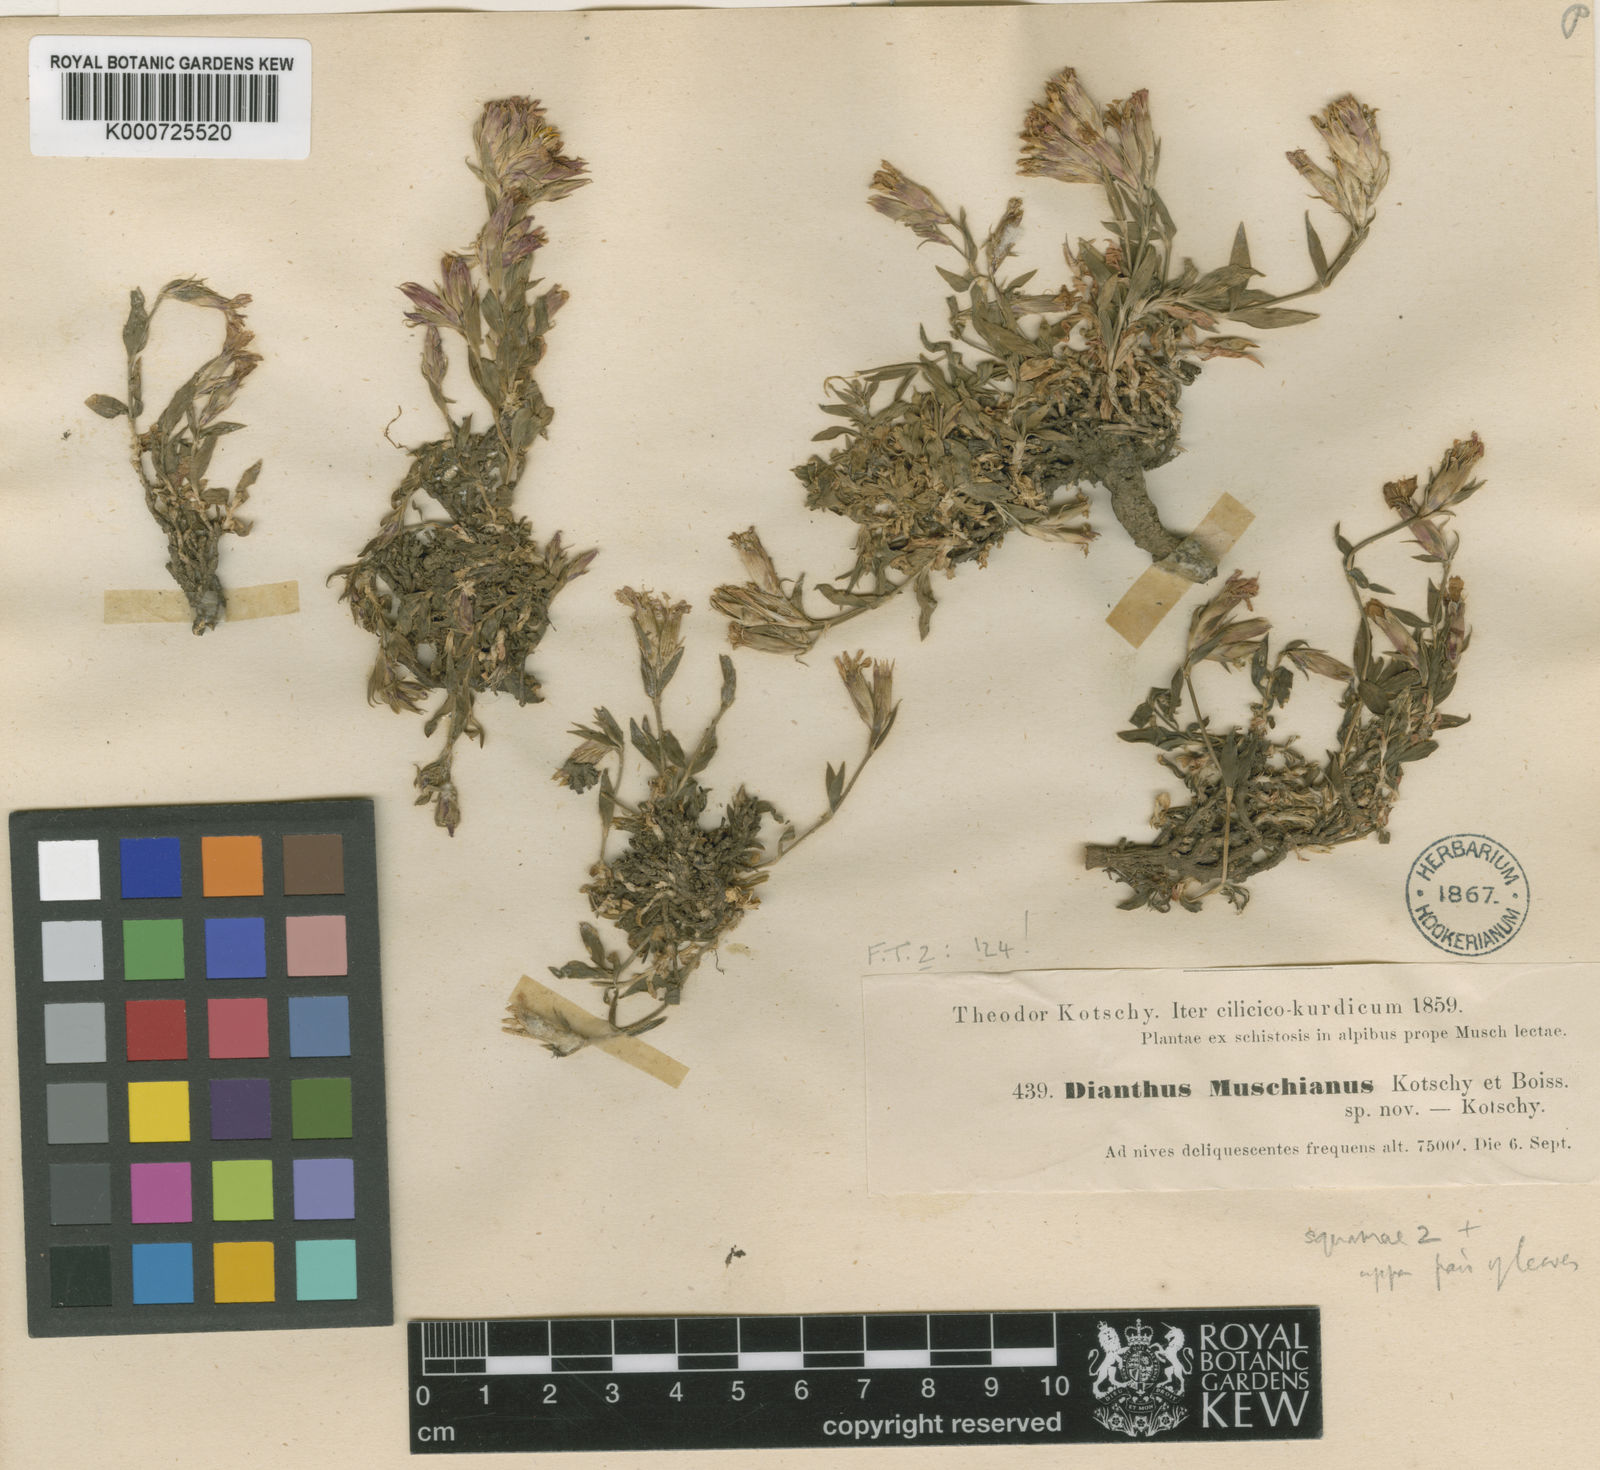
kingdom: Plantae
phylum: Tracheophyta
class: Magnoliopsida
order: Caryophyllales
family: Caryophyllaceae
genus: Dianthus
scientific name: Dianthus muschianus
